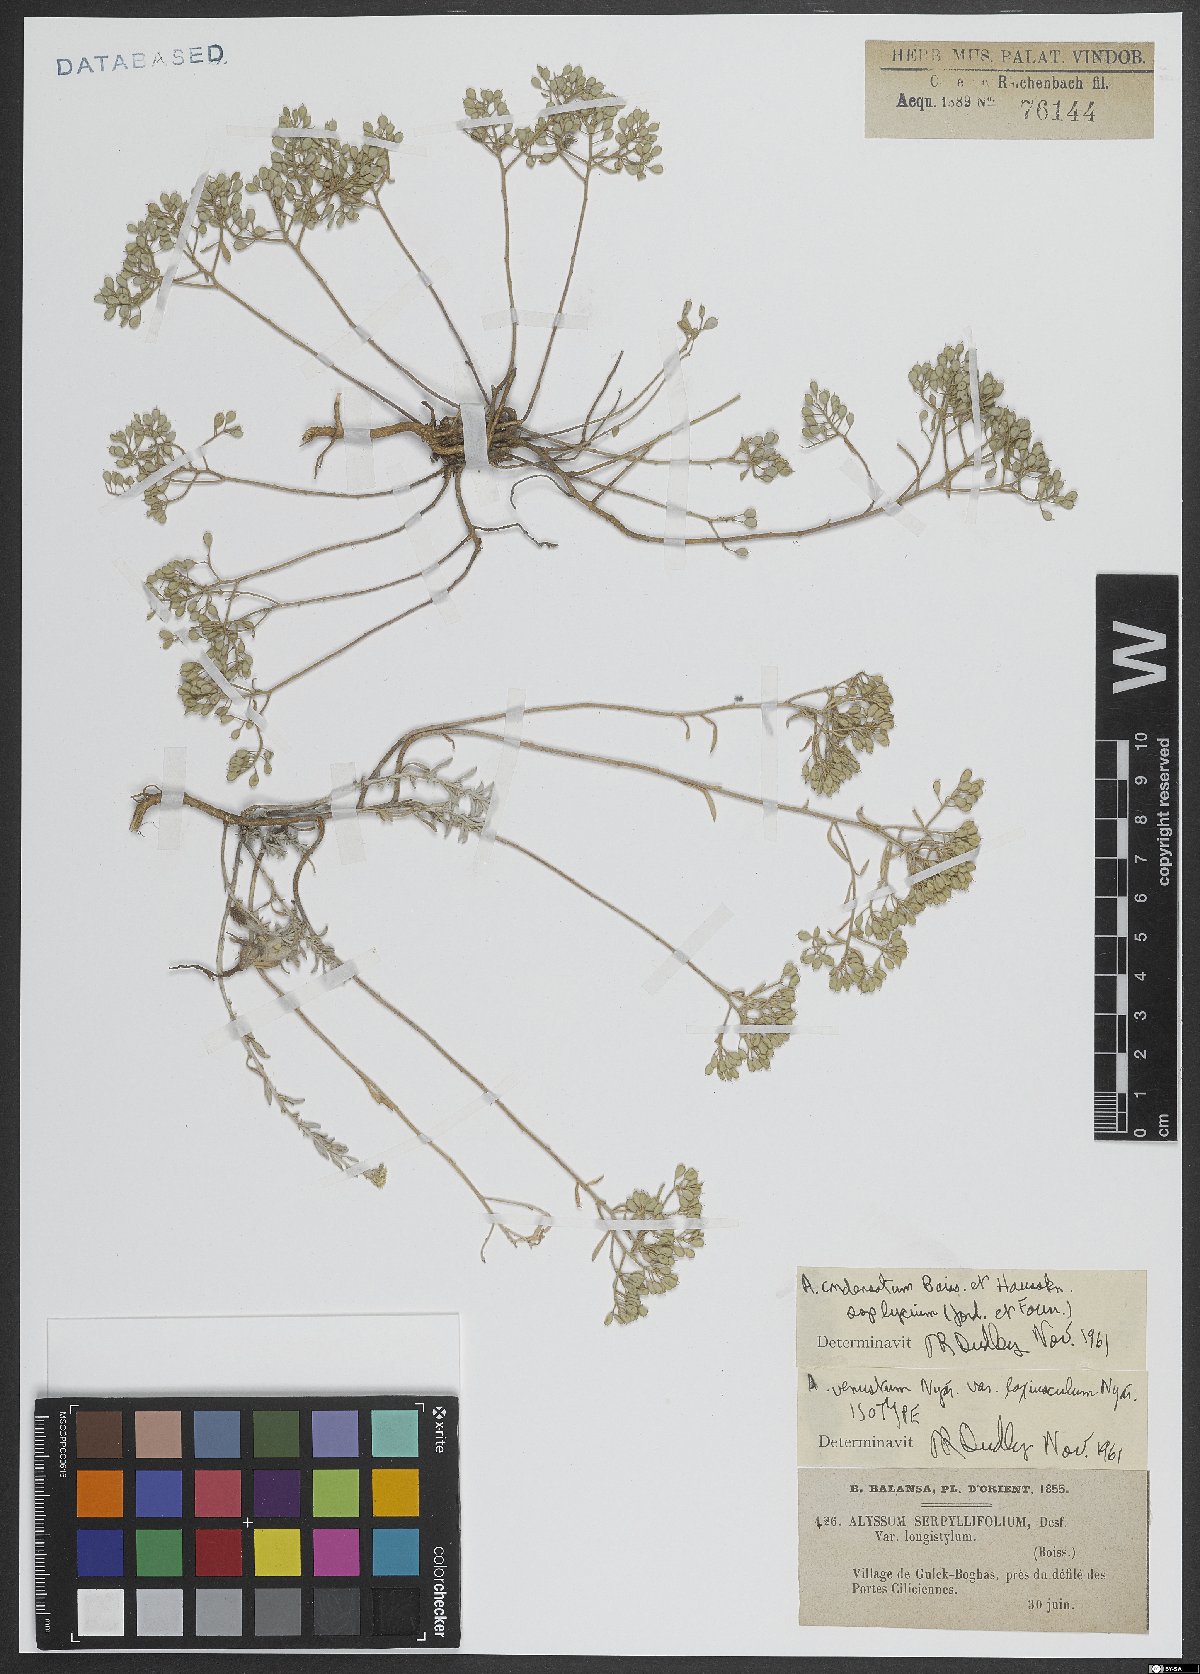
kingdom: Plantae
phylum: Tracheophyta
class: Magnoliopsida
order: Brassicales
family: Brassicaceae
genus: Odontarrhena
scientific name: Odontarrhena condensata
